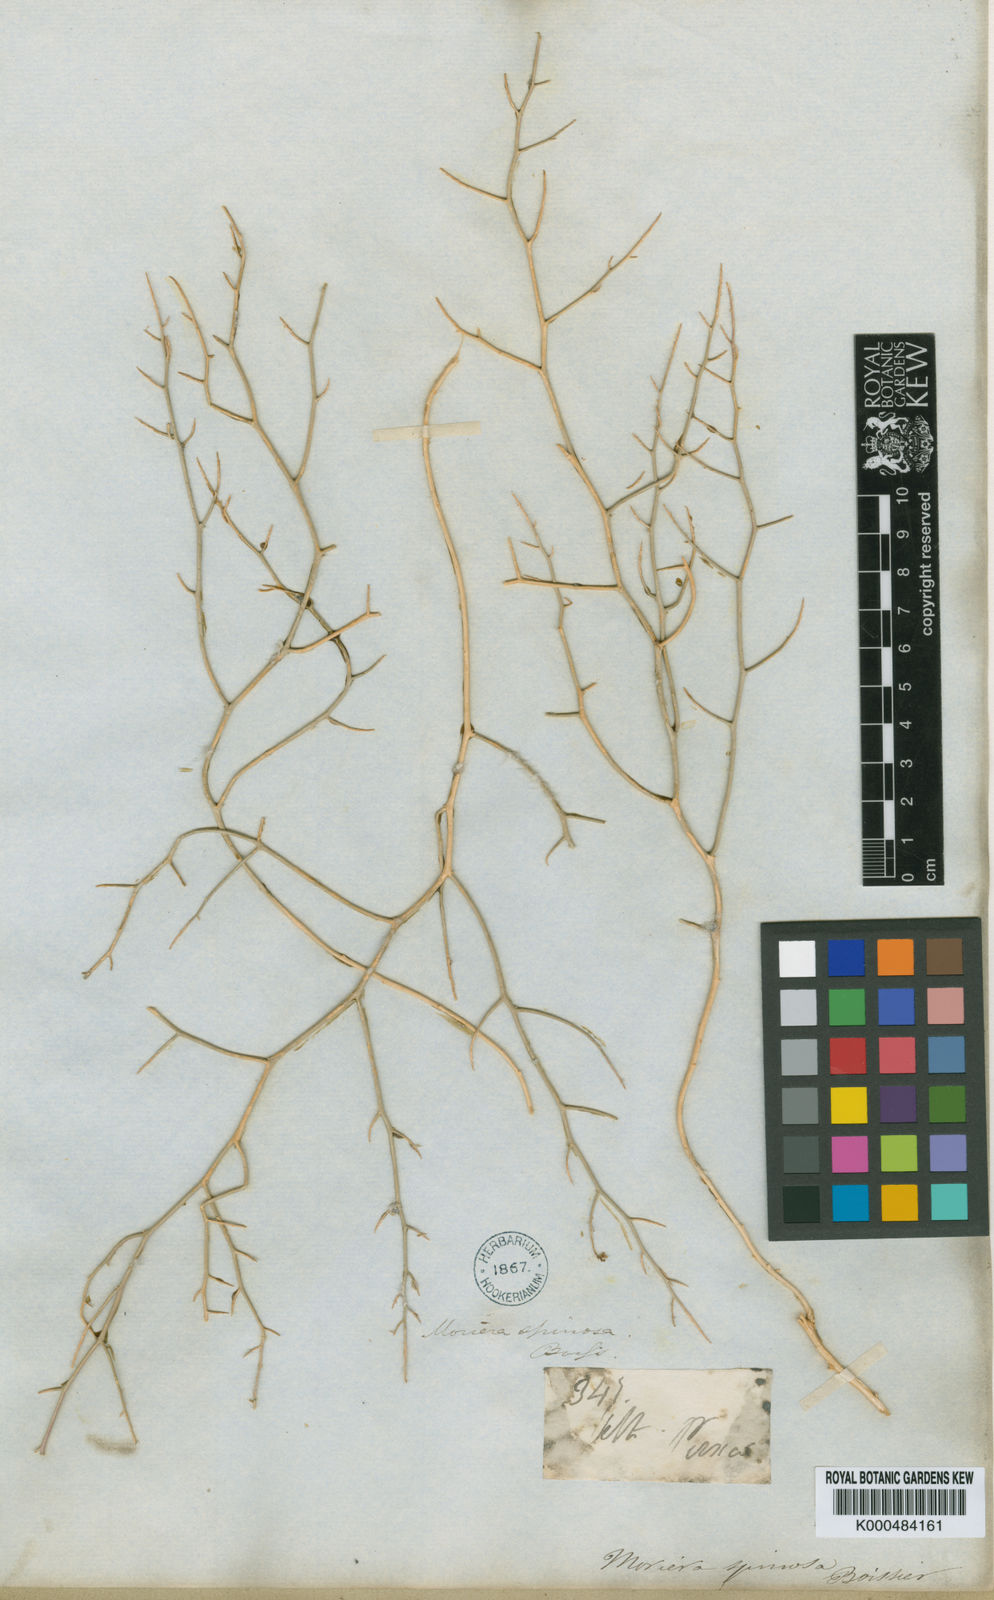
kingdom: Plantae
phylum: Tracheophyta
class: Magnoliopsida
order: Brassicales
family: Brassicaceae
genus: Aethionema
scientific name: Aethionema spinosum
